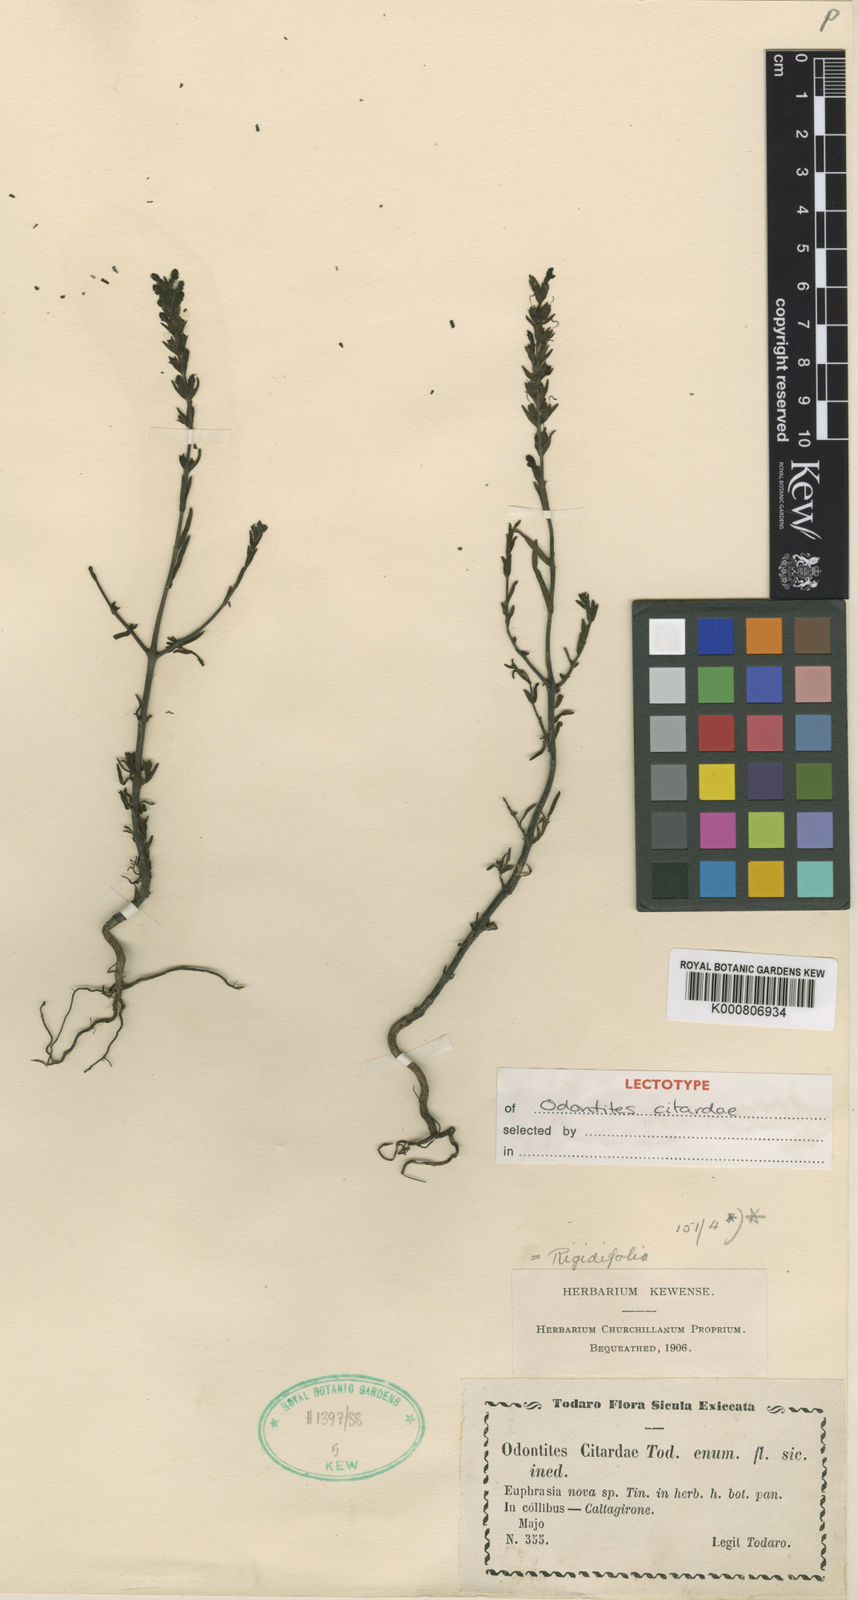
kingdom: Plantae
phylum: Tracheophyta
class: Magnoliopsida
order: Lamiales
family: Orobanchaceae
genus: Odontites
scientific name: Odontites rigidifolius
